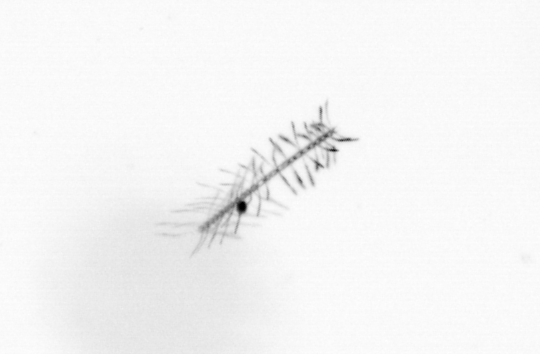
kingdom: Chromista
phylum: Ochrophyta
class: Bacillariophyceae
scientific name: Bacillariophyceae
